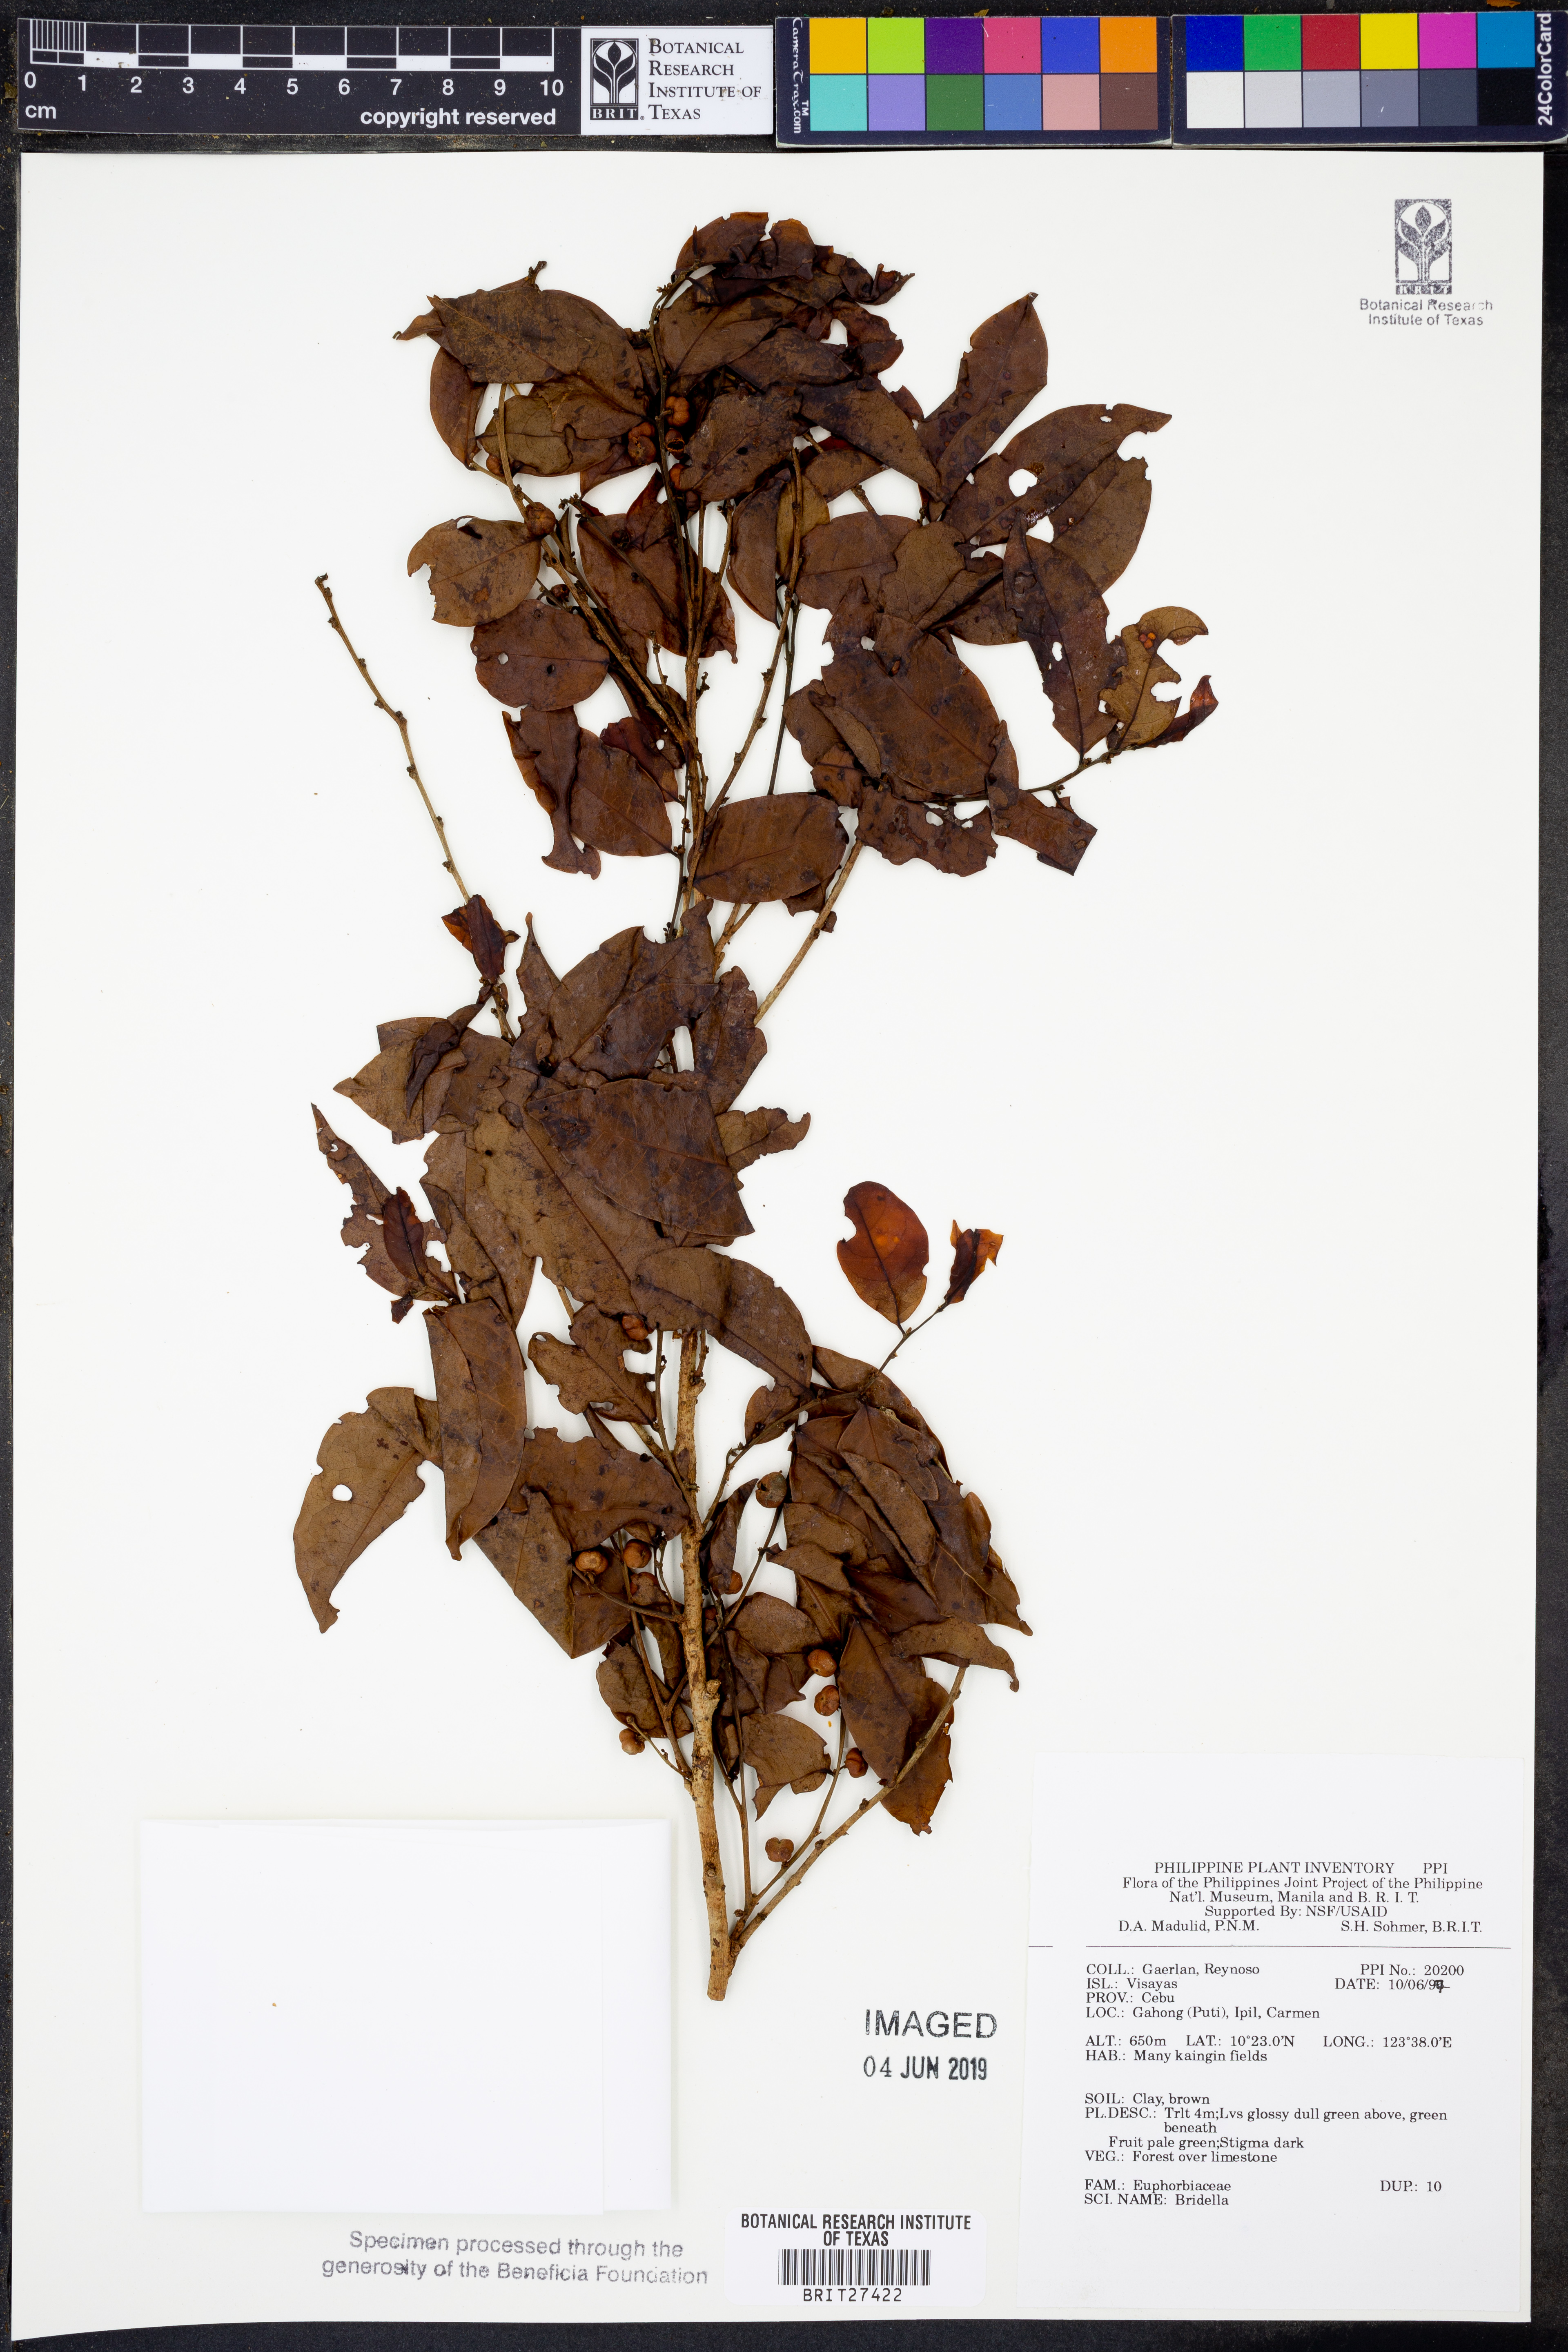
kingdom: Plantae
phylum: Tracheophyta
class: Magnoliopsida
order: Malpighiales
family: Phyllanthaceae
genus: Bridelia
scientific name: Bridelia
